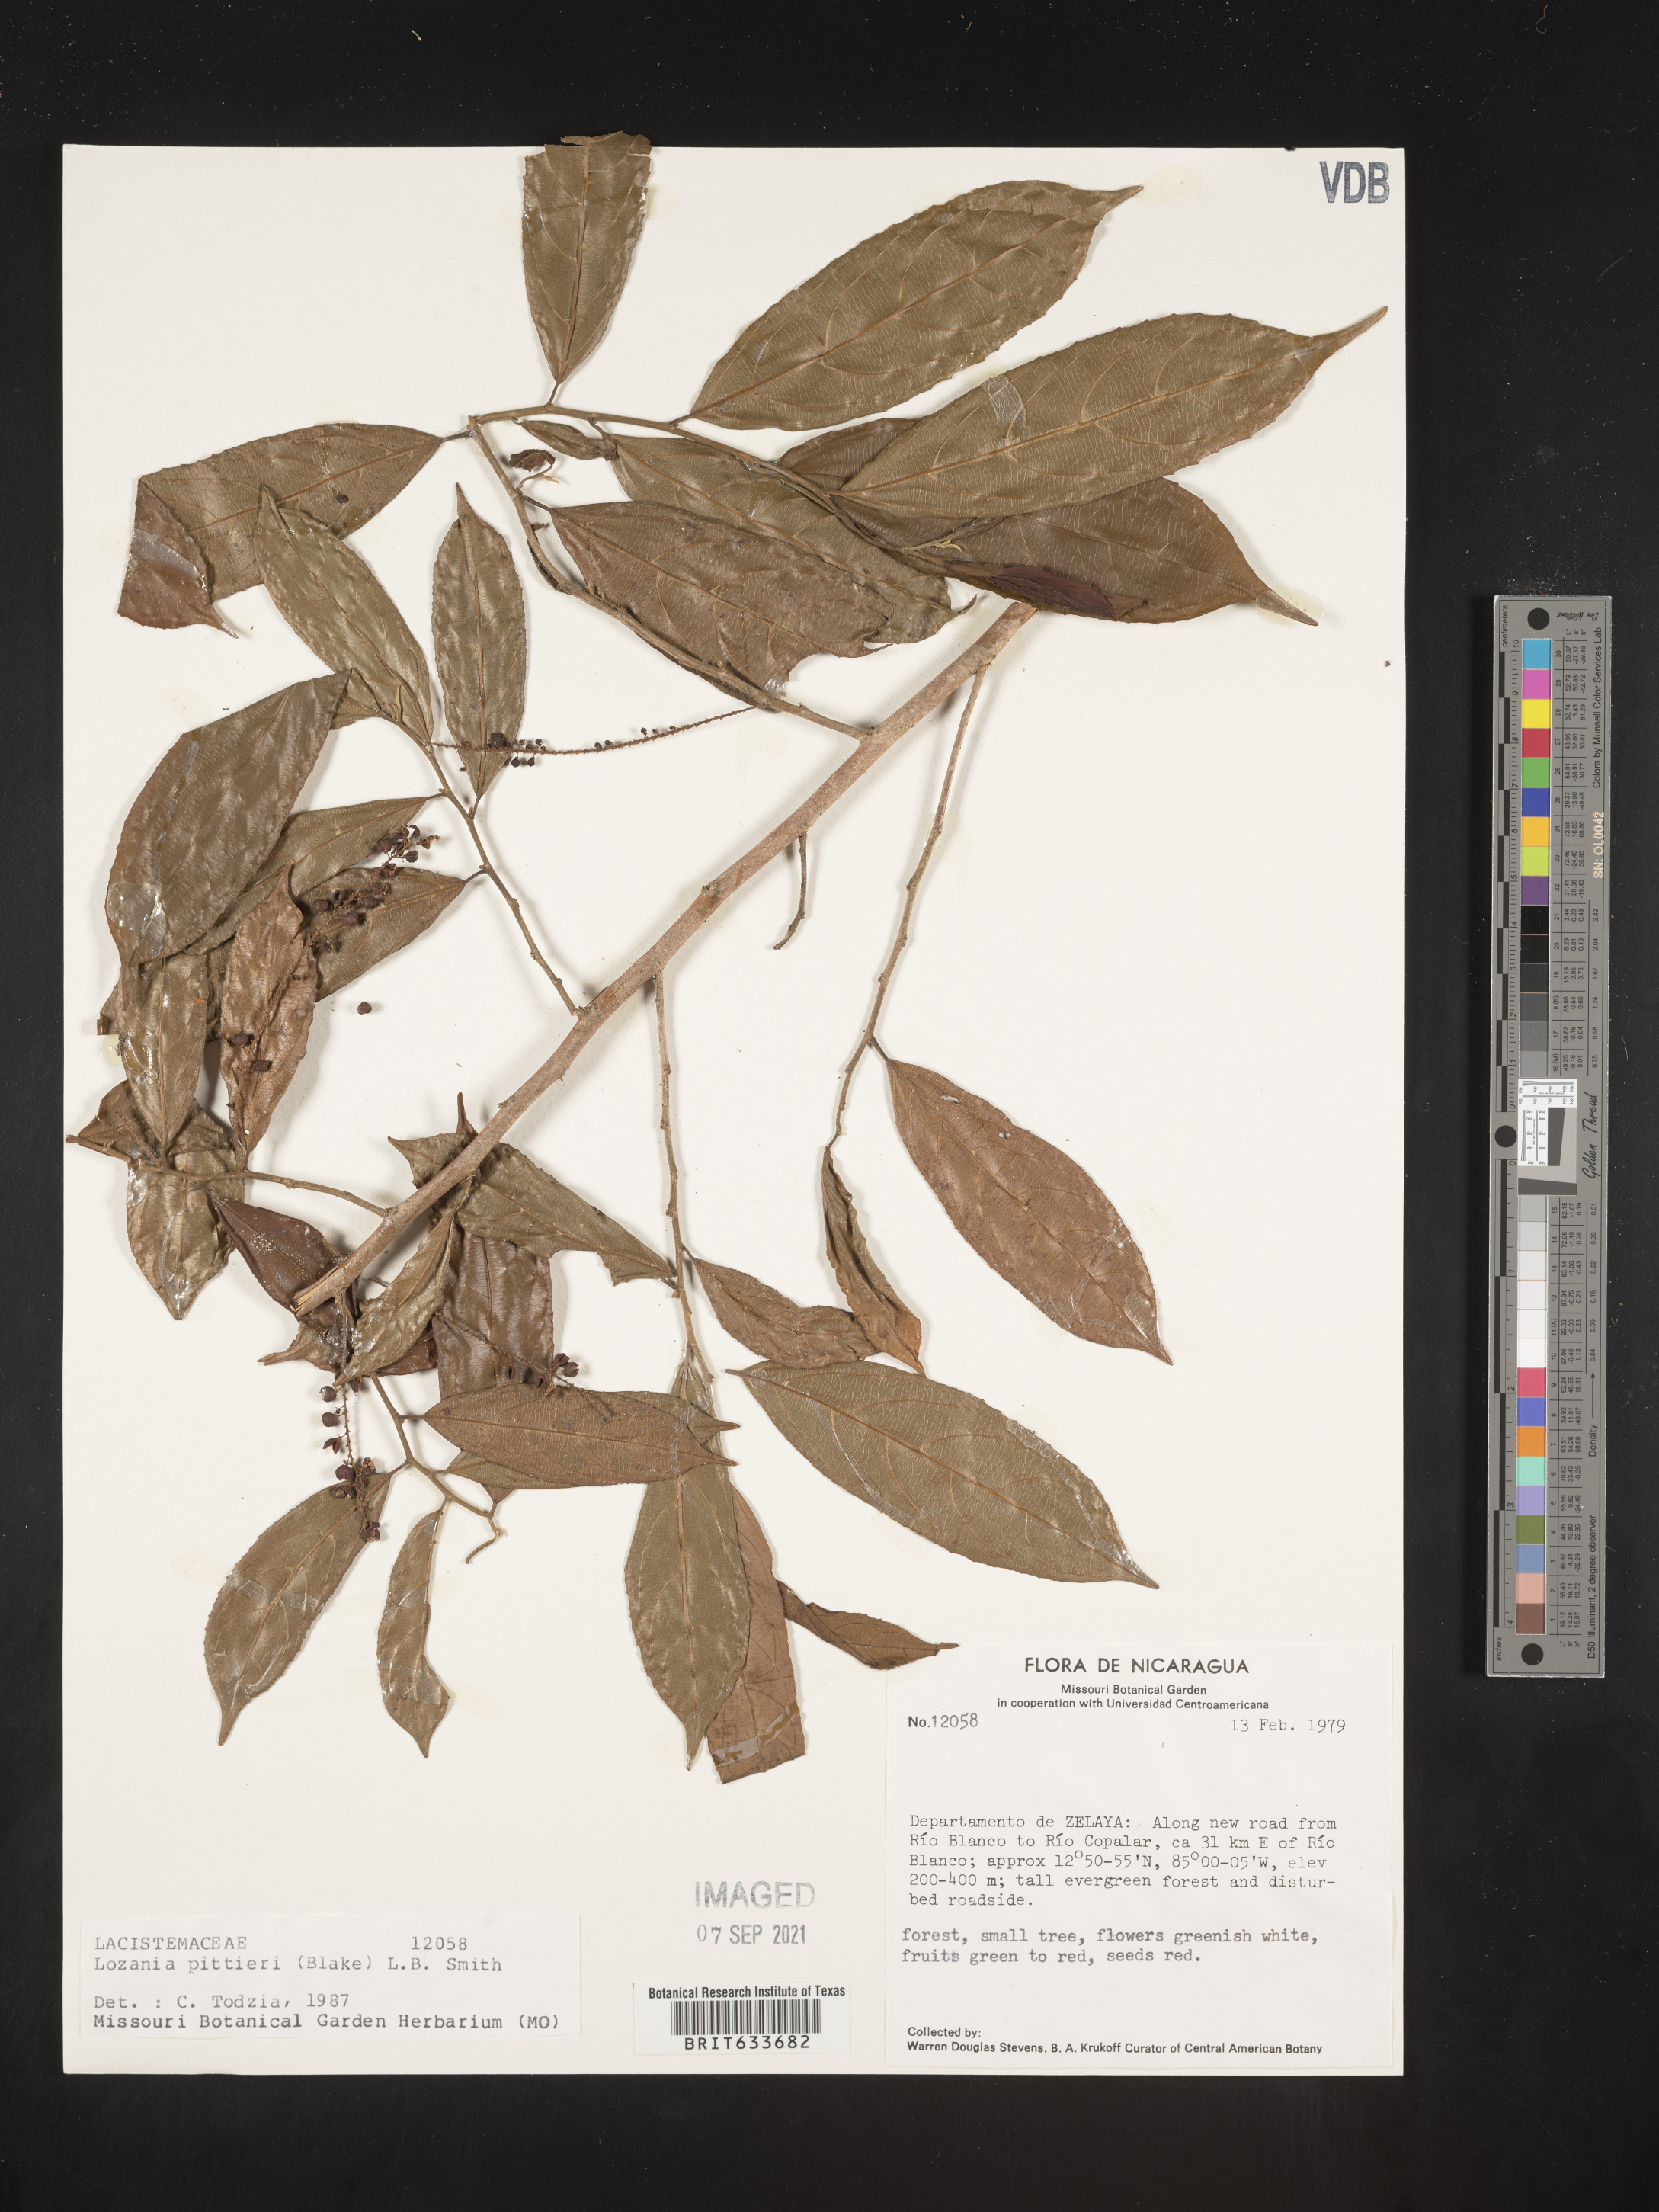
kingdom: Plantae
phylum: Tracheophyta
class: Magnoliopsida
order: Malpighiales
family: Lacistemataceae
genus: Lozania
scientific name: Lozania
